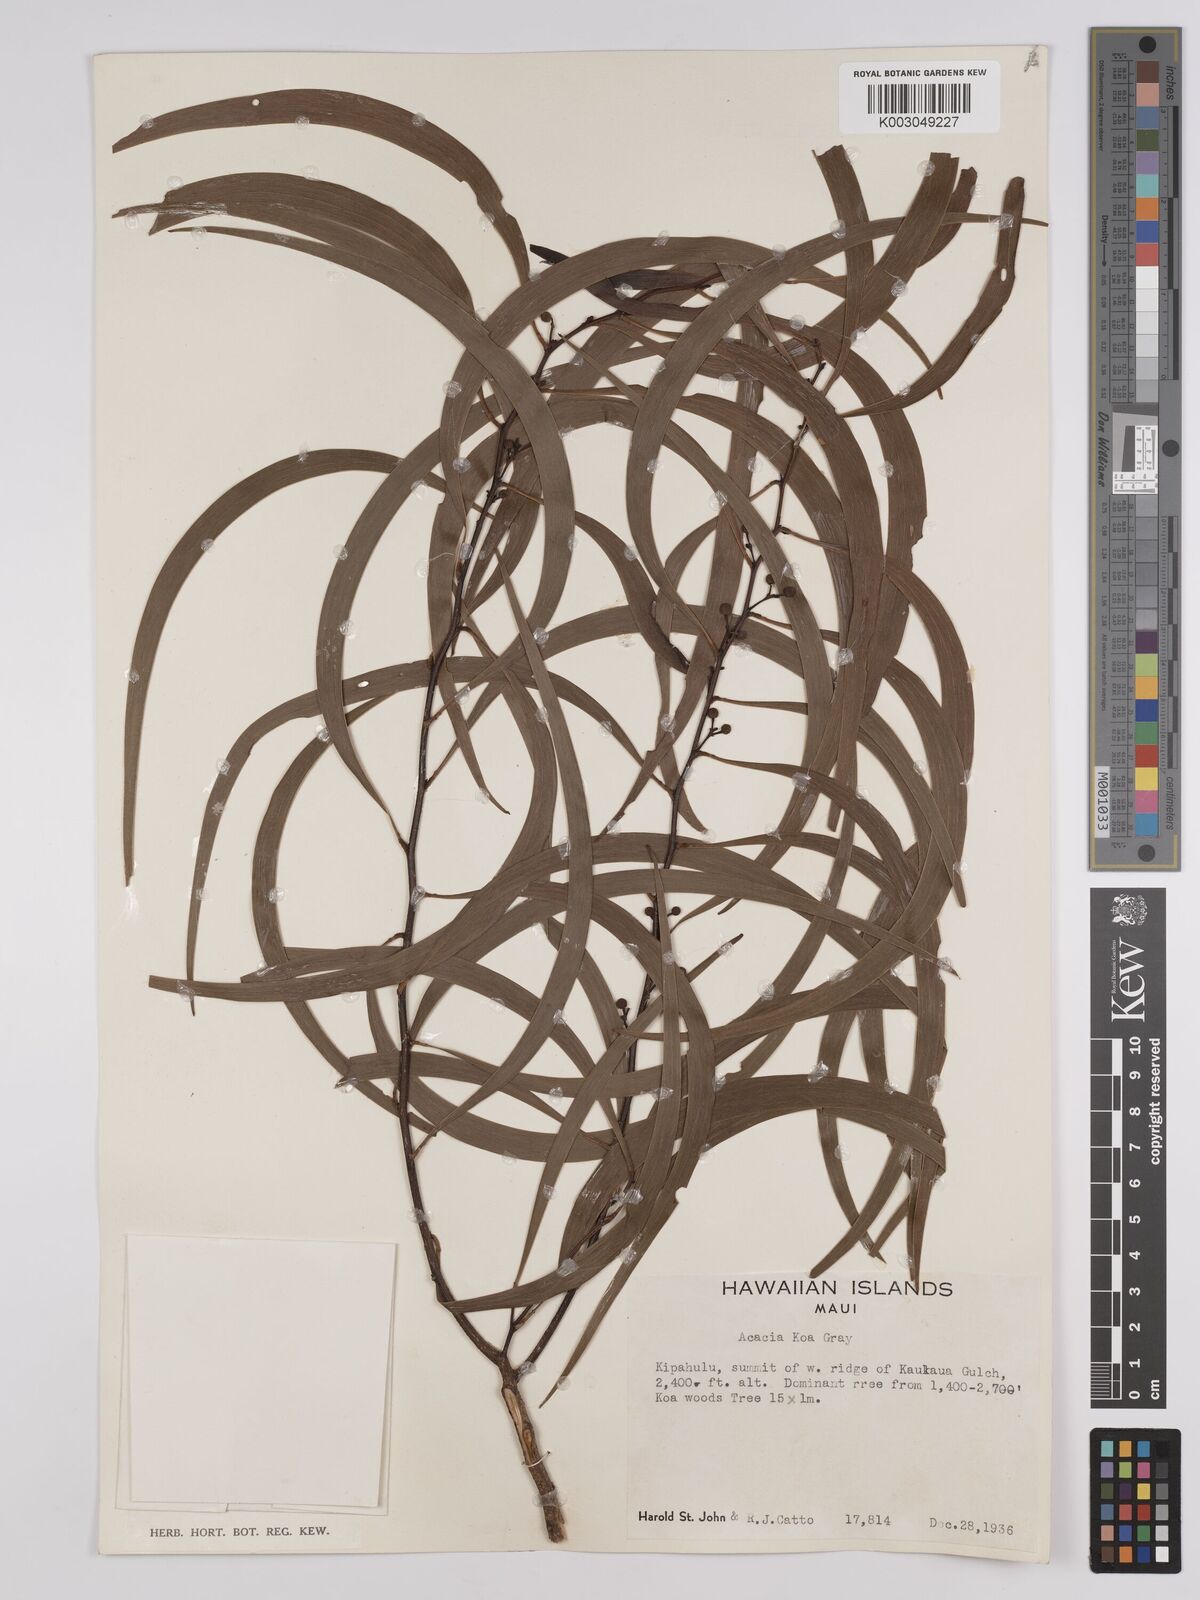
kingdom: Plantae
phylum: Tracheophyta
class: Magnoliopsida
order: Fabales
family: Fabaceae
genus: Acacia
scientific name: Acacia koa
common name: Gray koa
